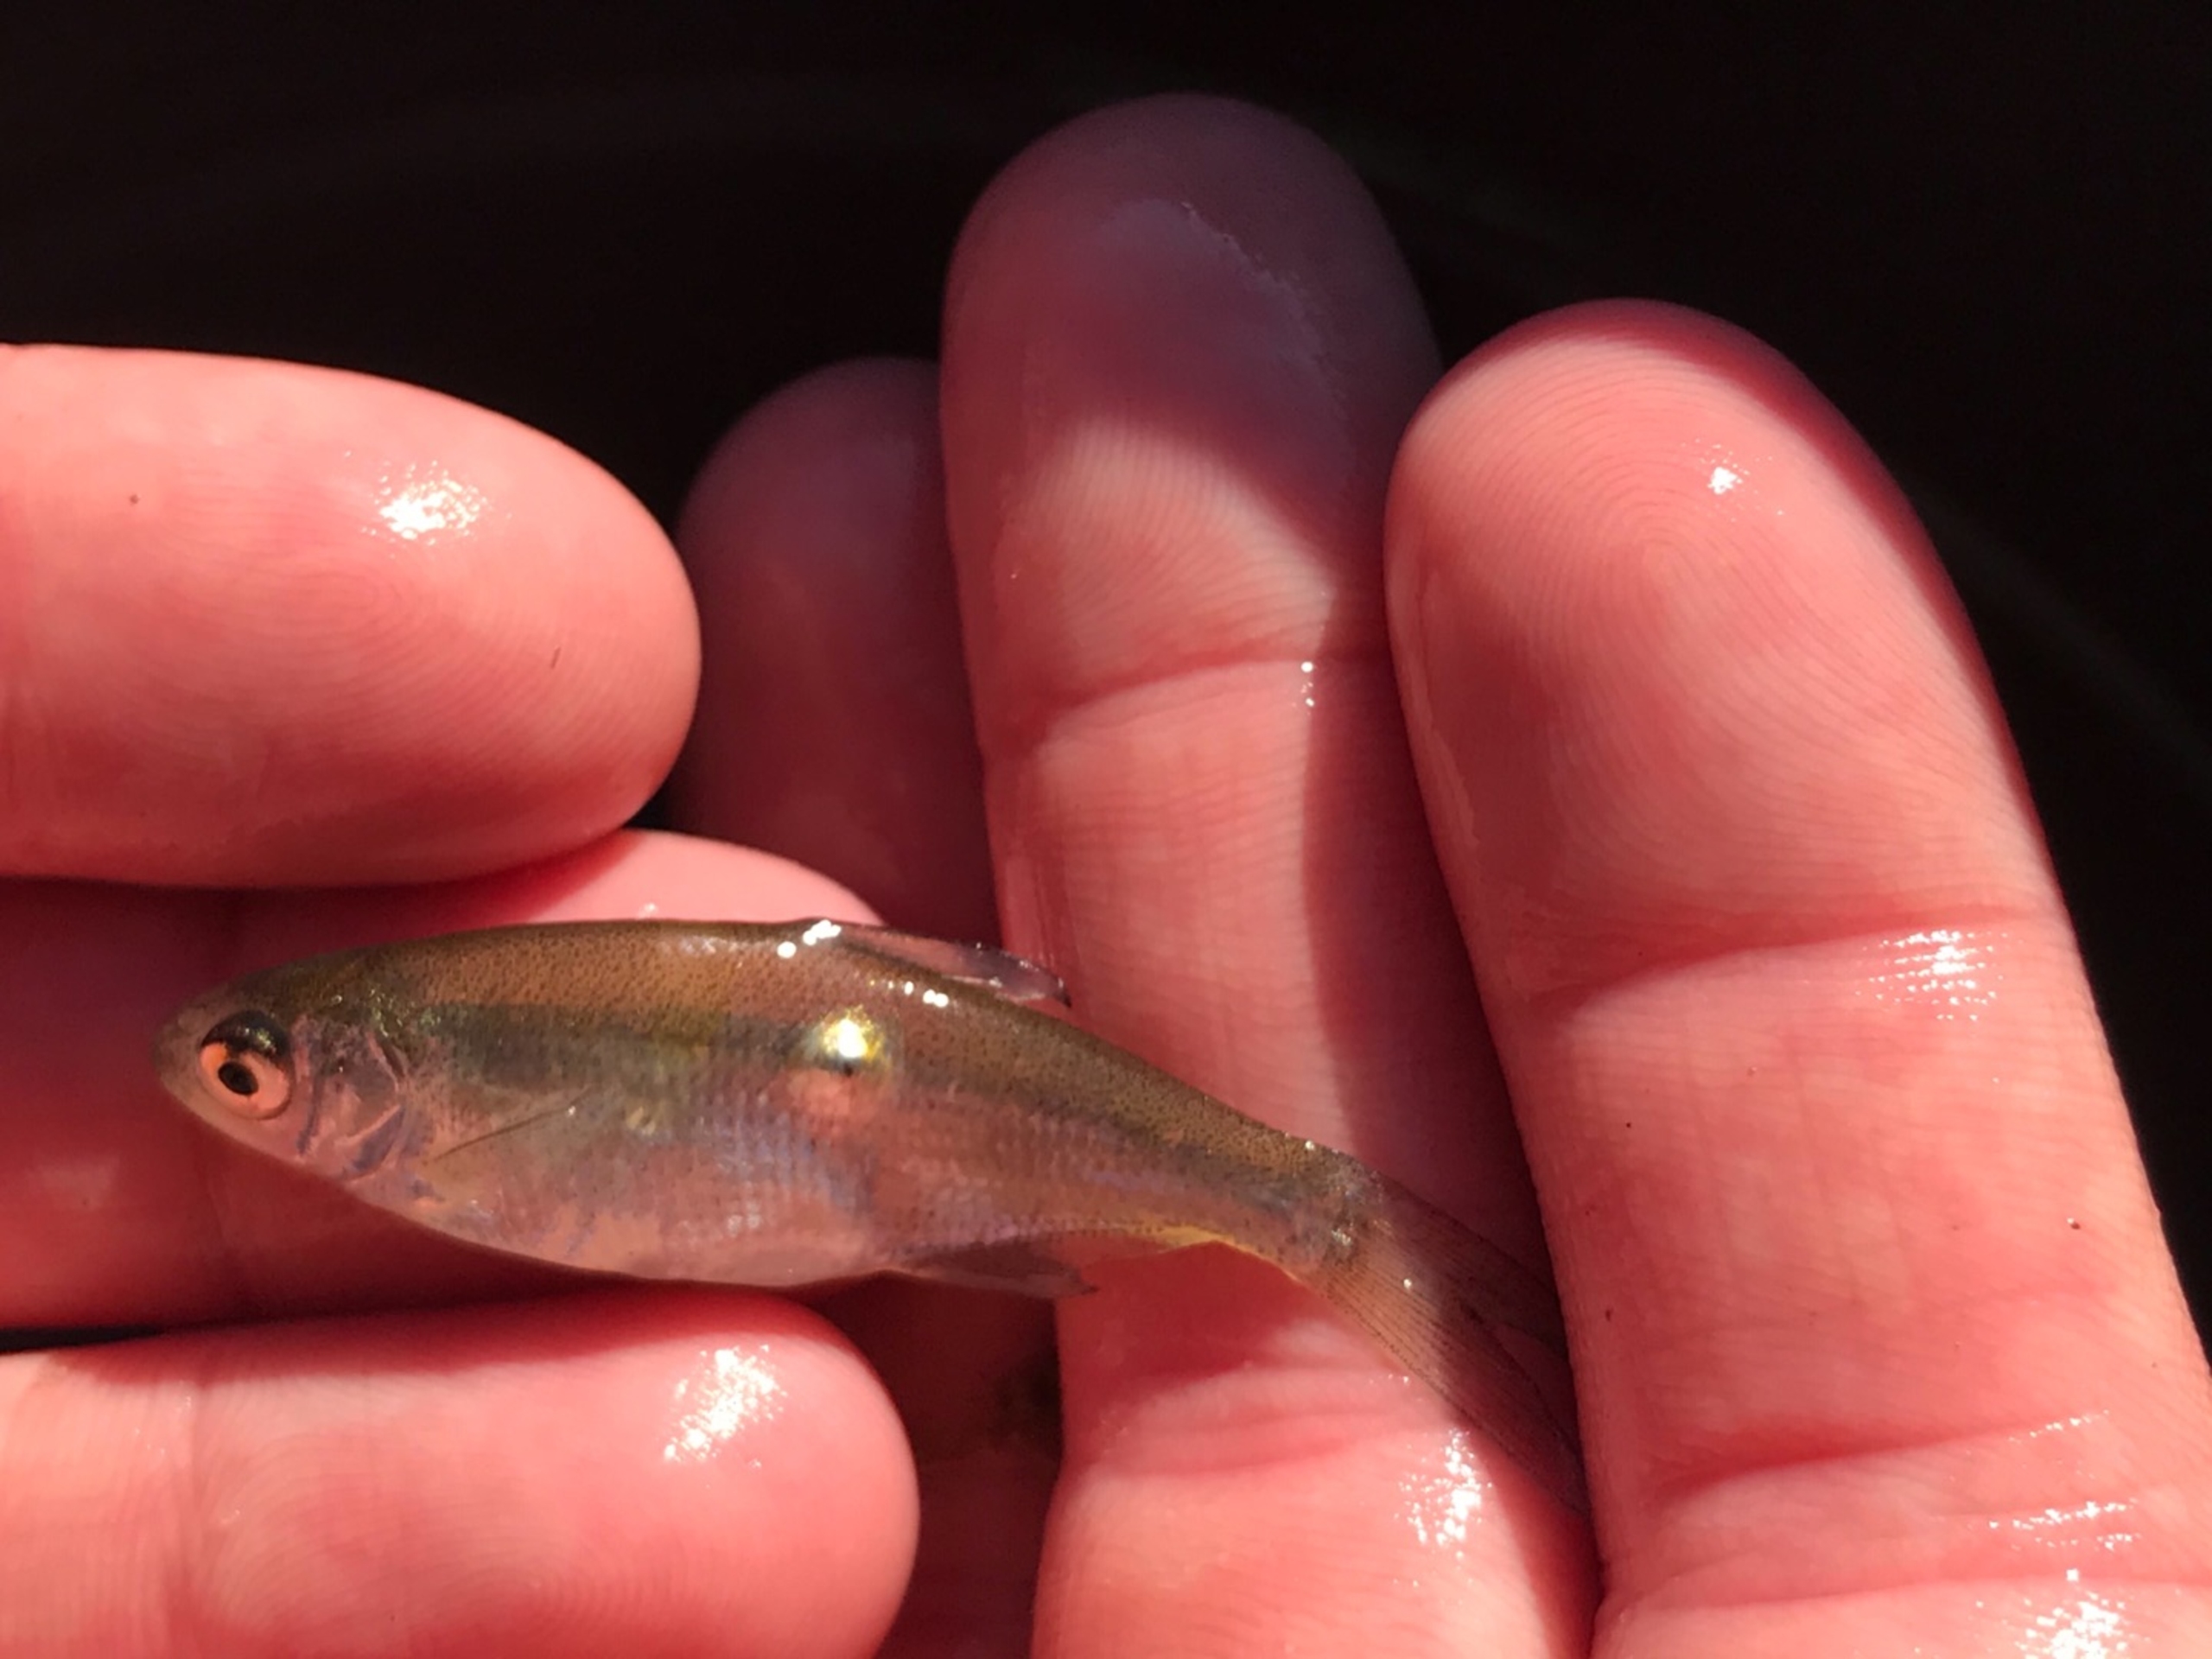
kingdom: Animalia
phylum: Chordata
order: Cypriniformes
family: Cyprinidae
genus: Abramis
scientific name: Abramis brama
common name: Brasen
